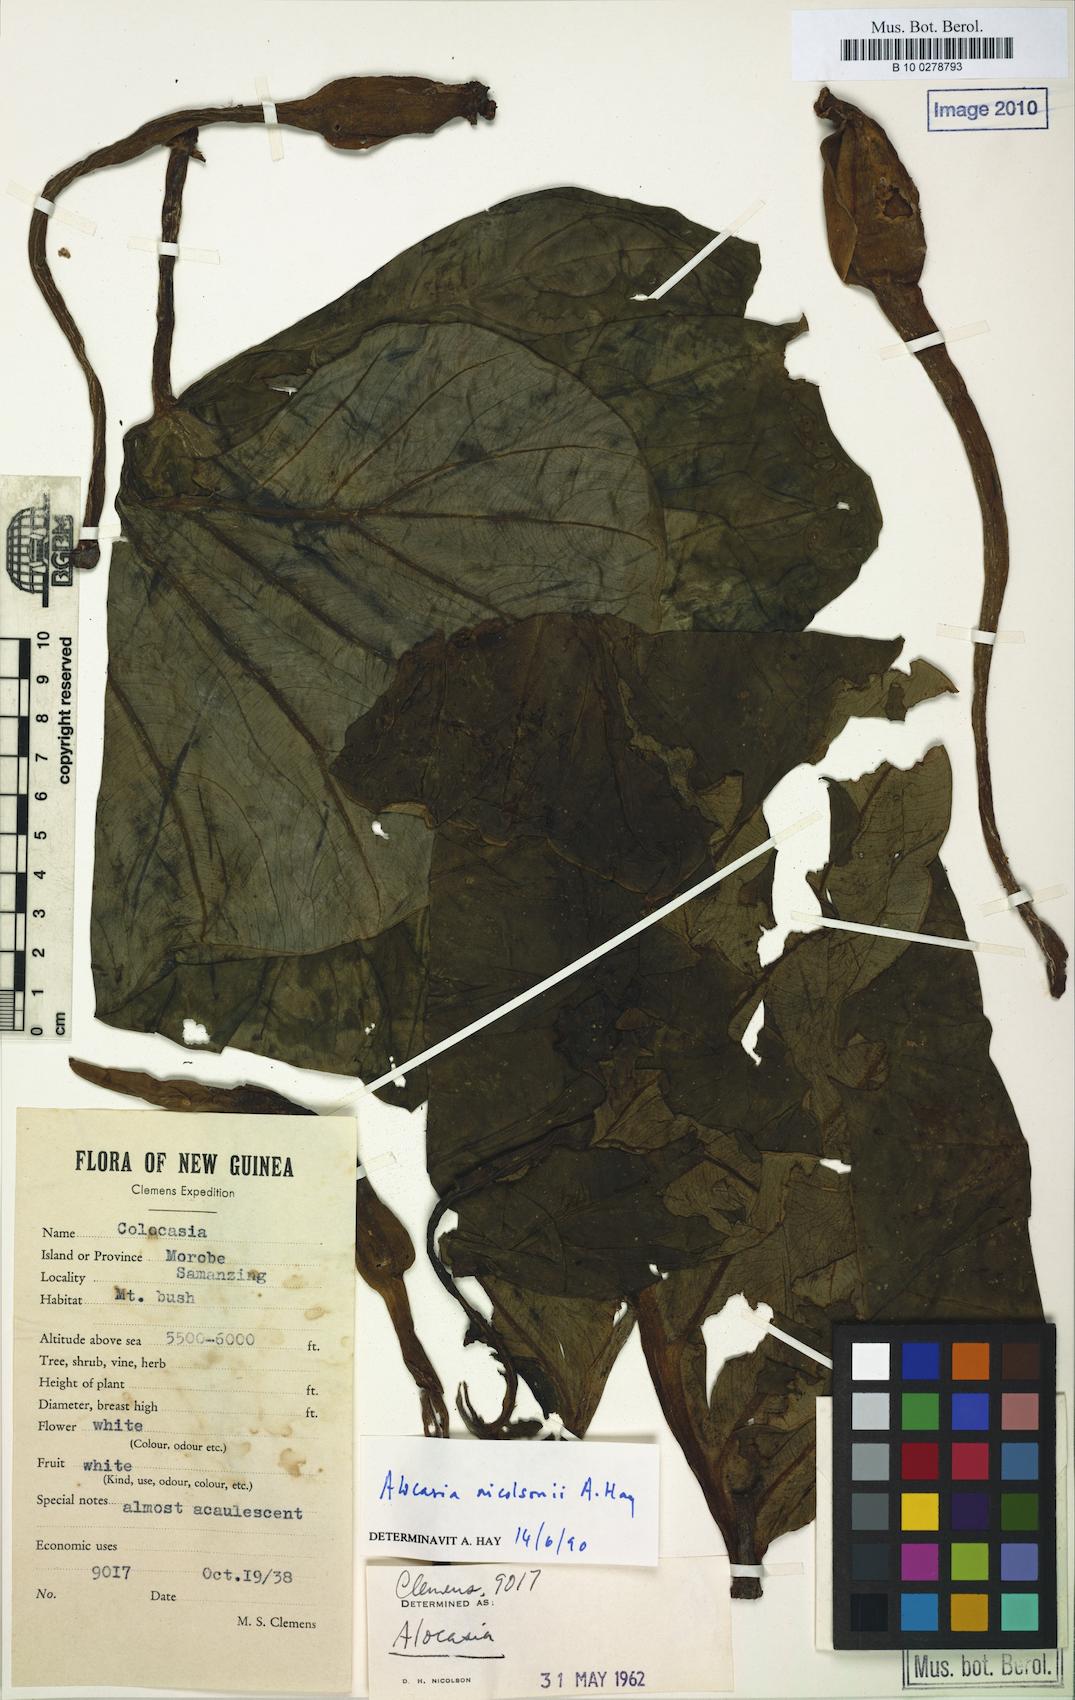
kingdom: Plantae
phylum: Tracheophyta
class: Liliopsida
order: Alismatales
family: Araceae
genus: Alocasia
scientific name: Alocasia nicolsonii
